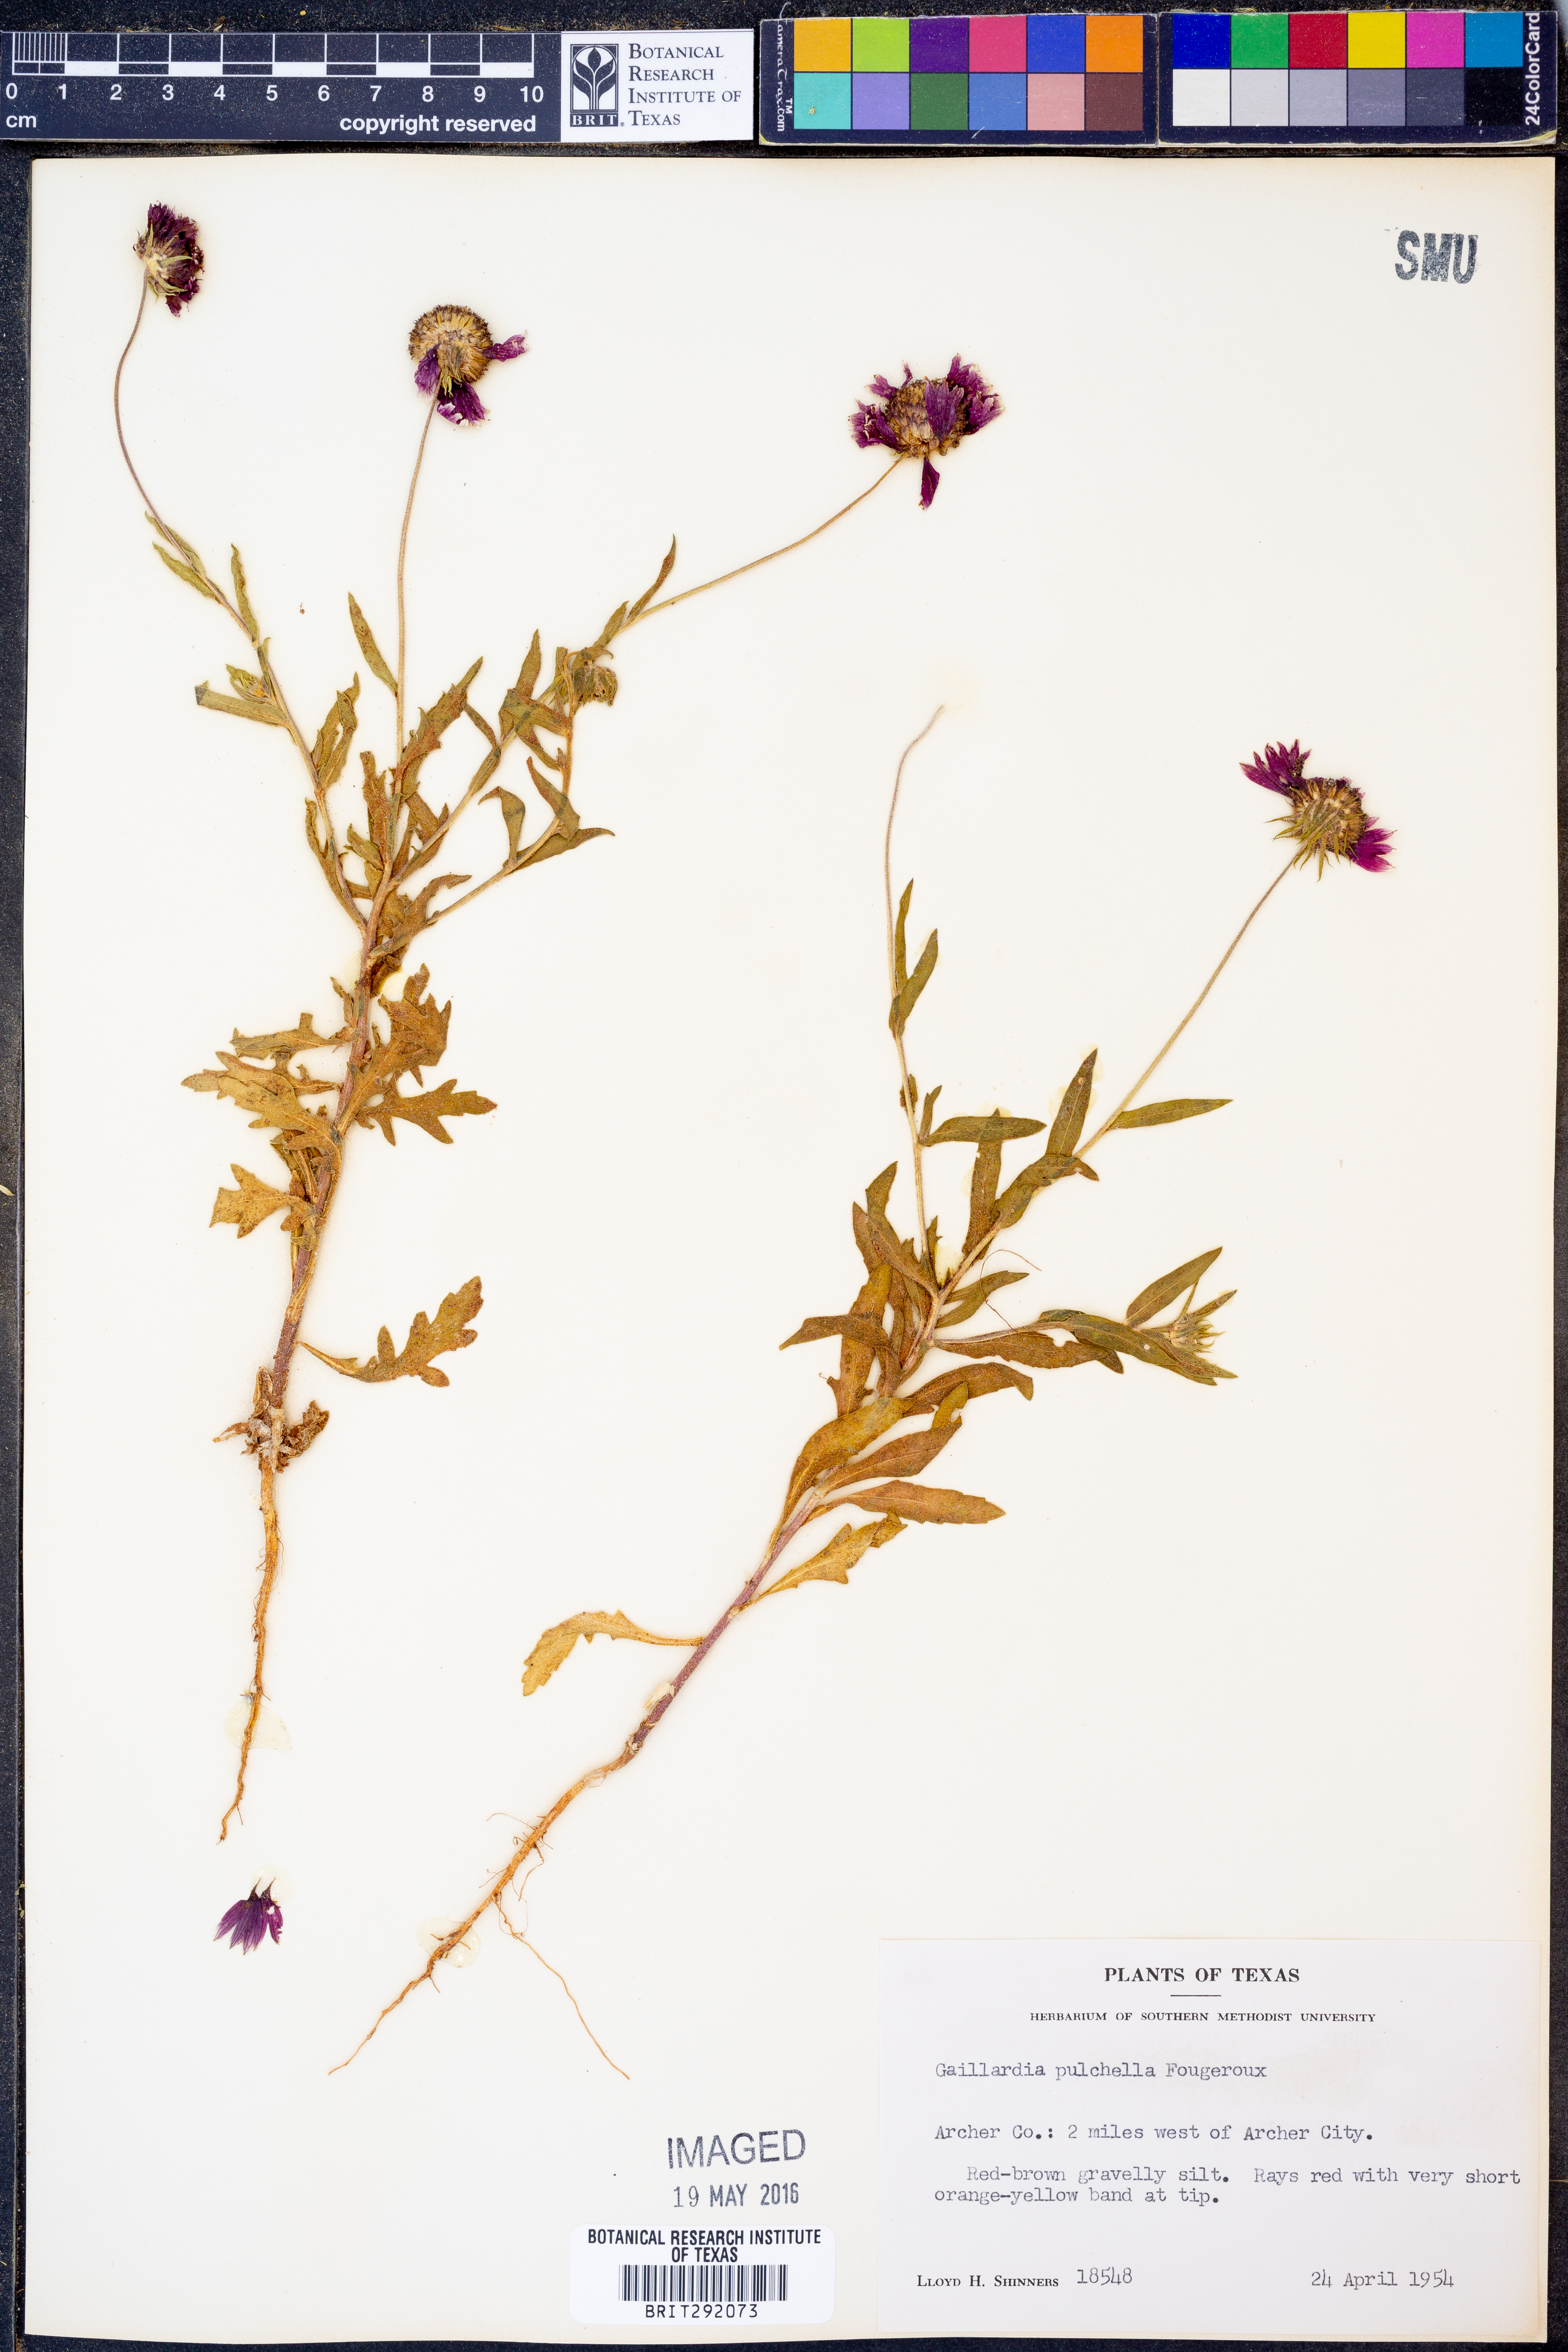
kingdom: Plantae
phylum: Tracheophyta
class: Magnoliopsida
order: Asterales
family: Asteraceae
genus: Gaillardia
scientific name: Gaillardia pulchella
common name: Firewheel
